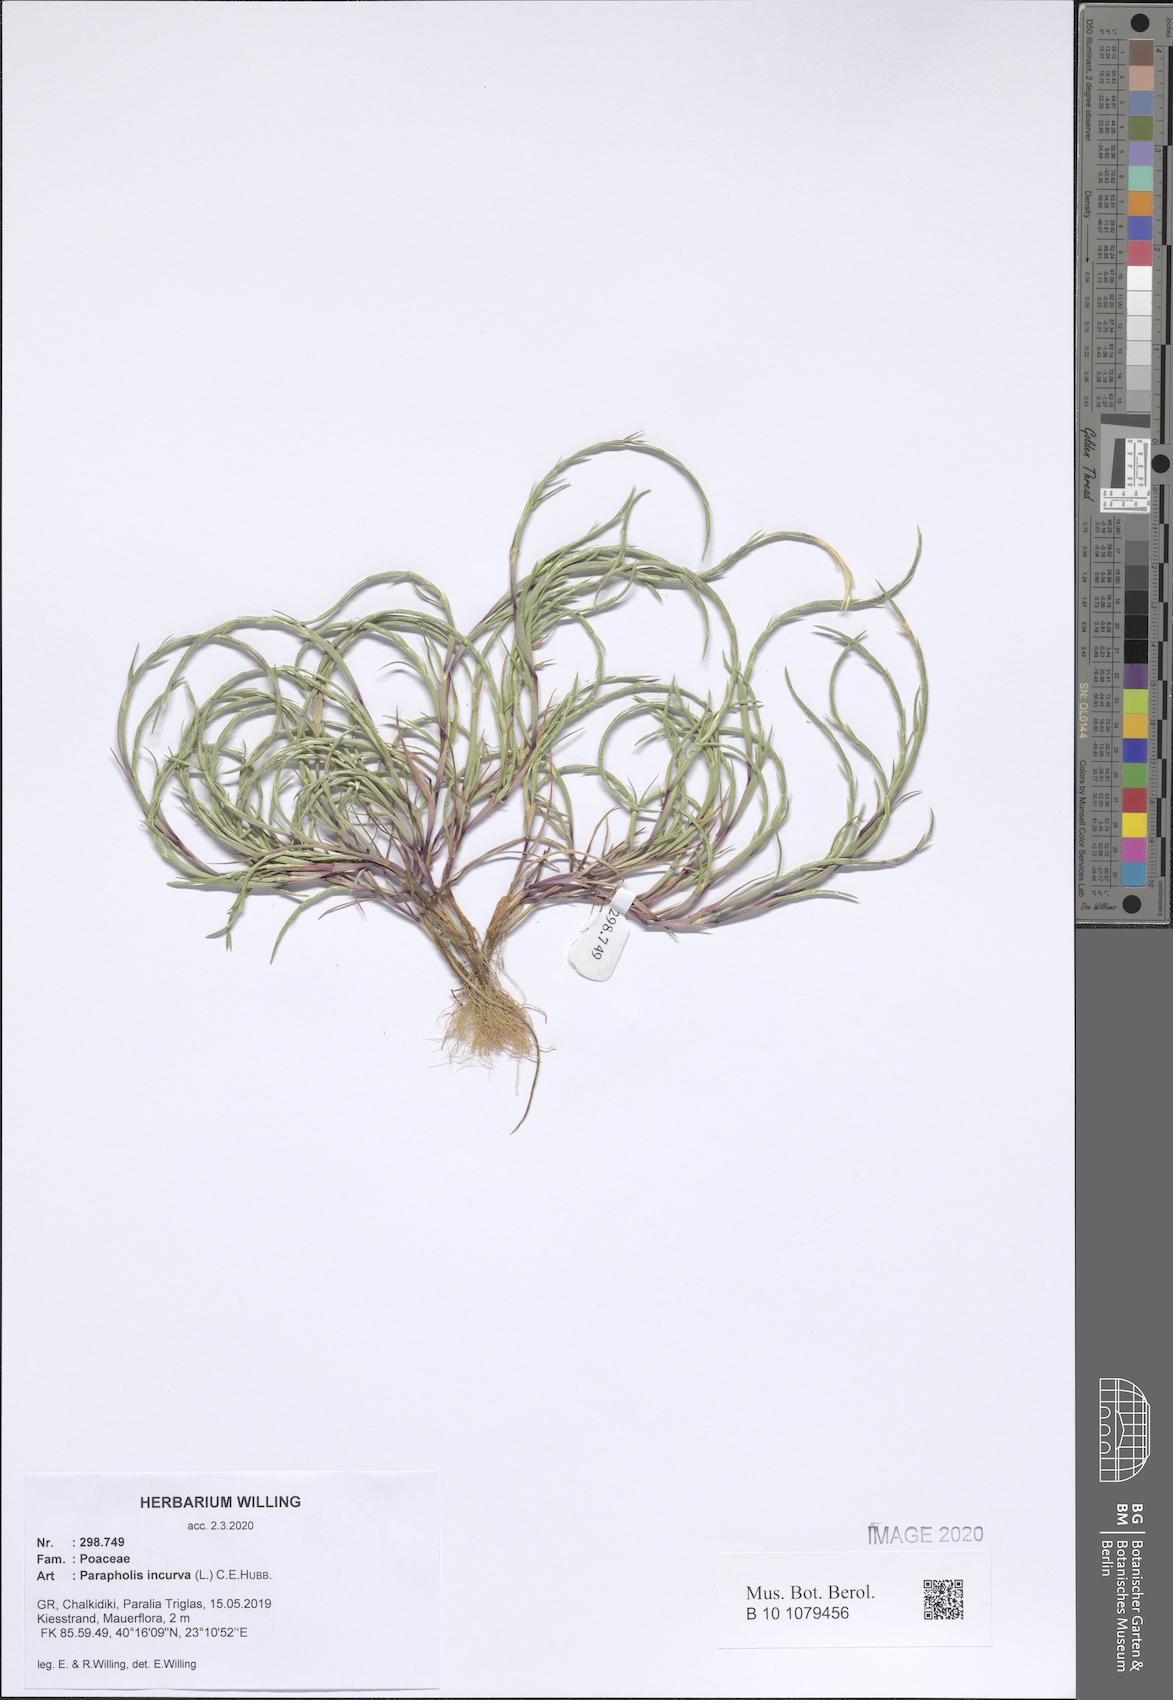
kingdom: Plantae
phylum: Tracheophyta
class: Liliopsida
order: Poales
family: Poaceae
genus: Parapholis
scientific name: Parapholis incurva
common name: Curved sicklegrass
